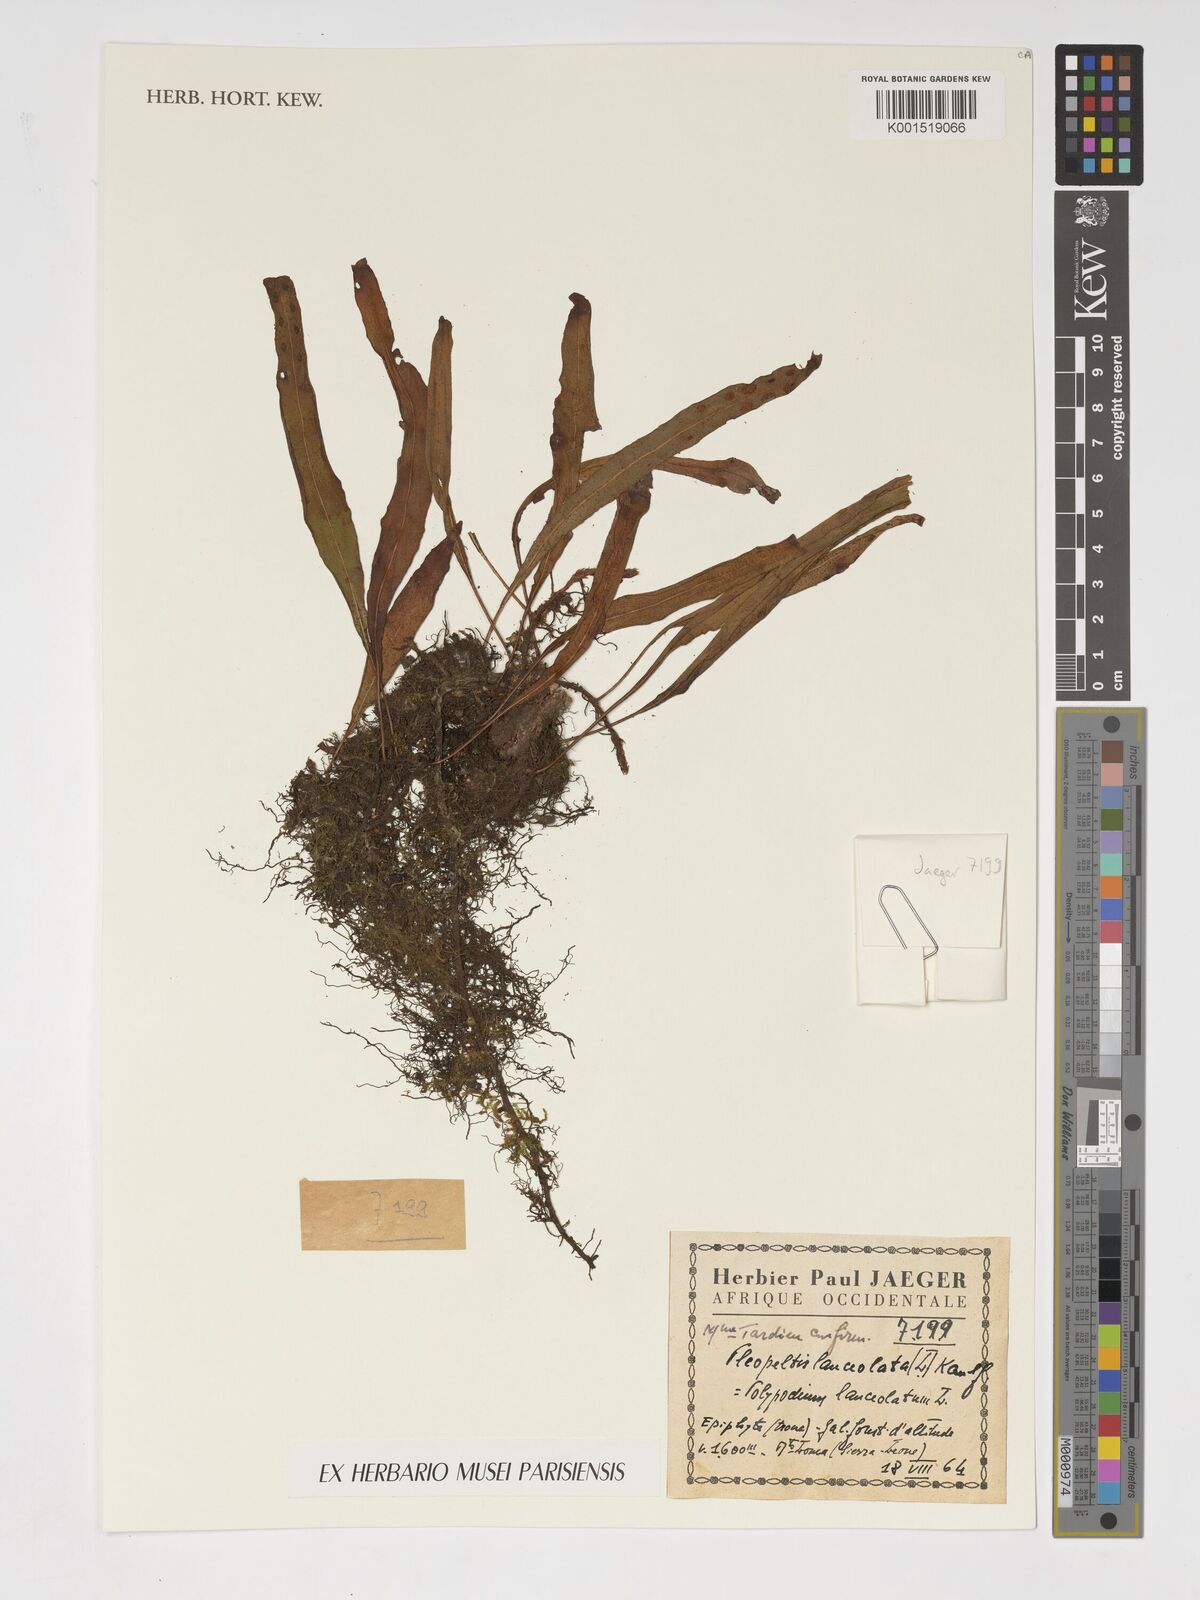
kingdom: Plantae
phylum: Tracheophyta
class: Polypodiopsida
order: Polypodiales
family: Polypodiaceae
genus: Pleopeltis
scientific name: Pleopeltis macrocarpa
